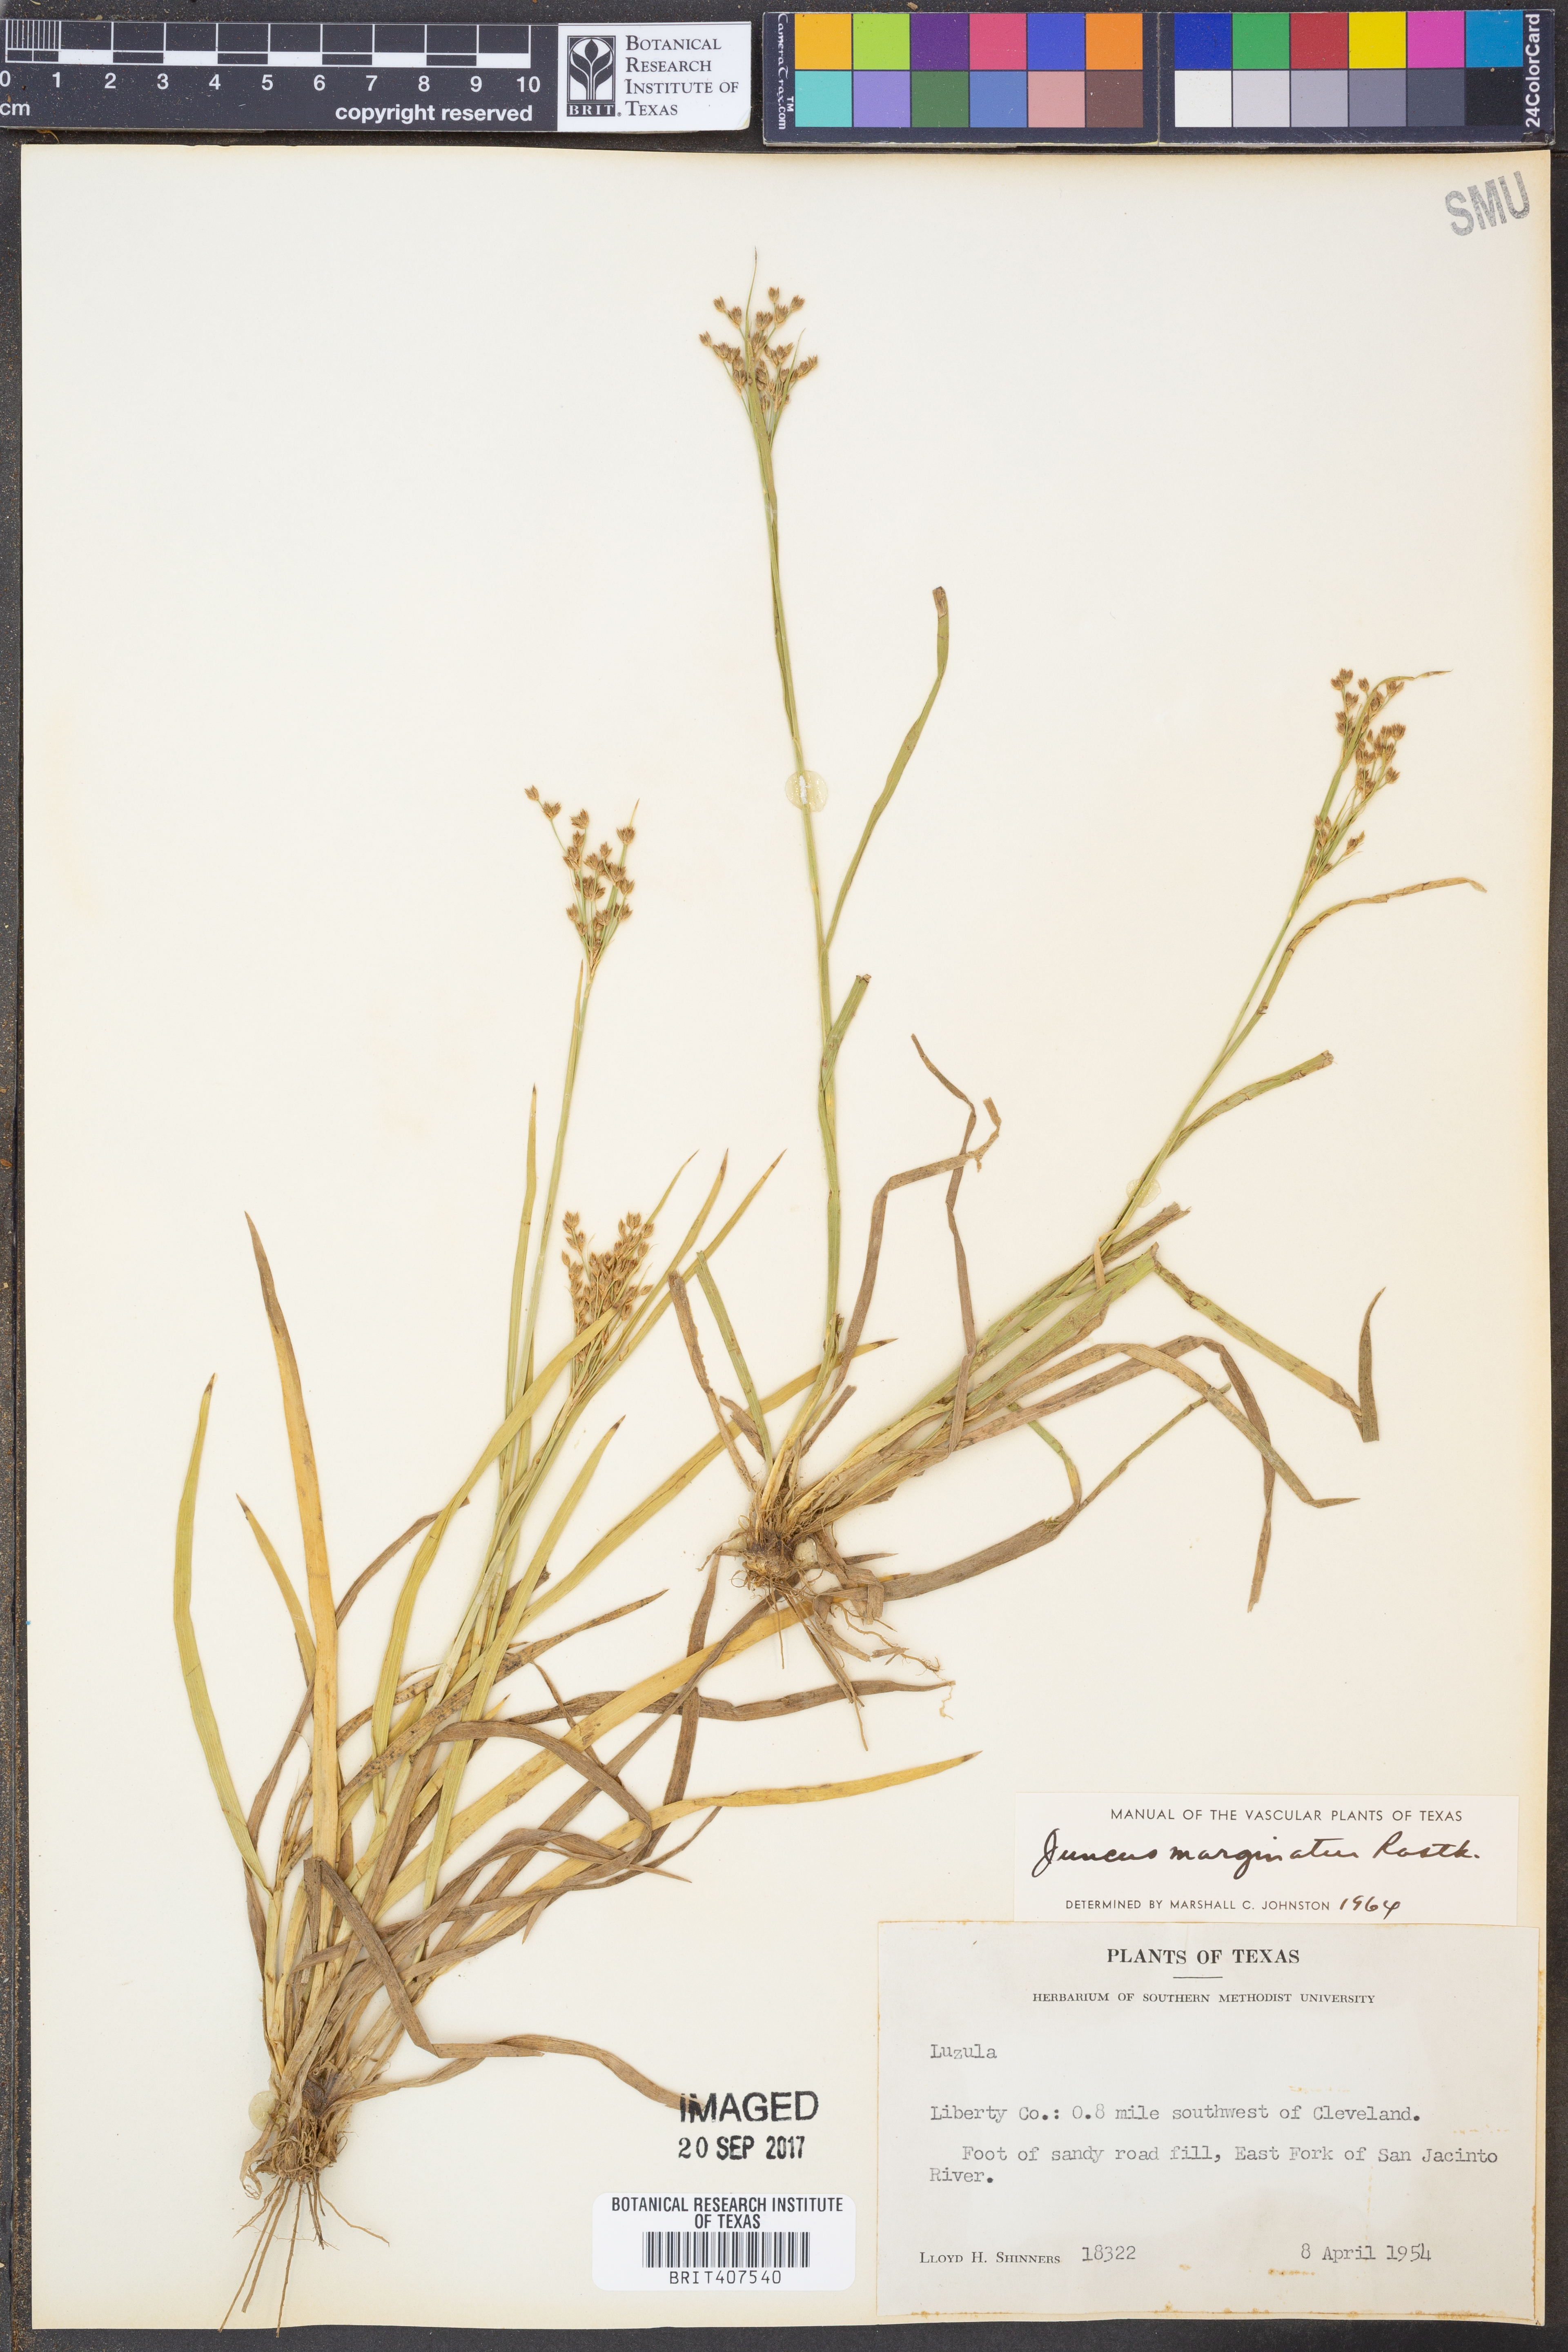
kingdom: Plantae
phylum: Tracheophyta
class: Liliopsida
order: Poales
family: Juncaceae
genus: Juncus
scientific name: Juncus marginatus
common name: Grass-leaf rush
